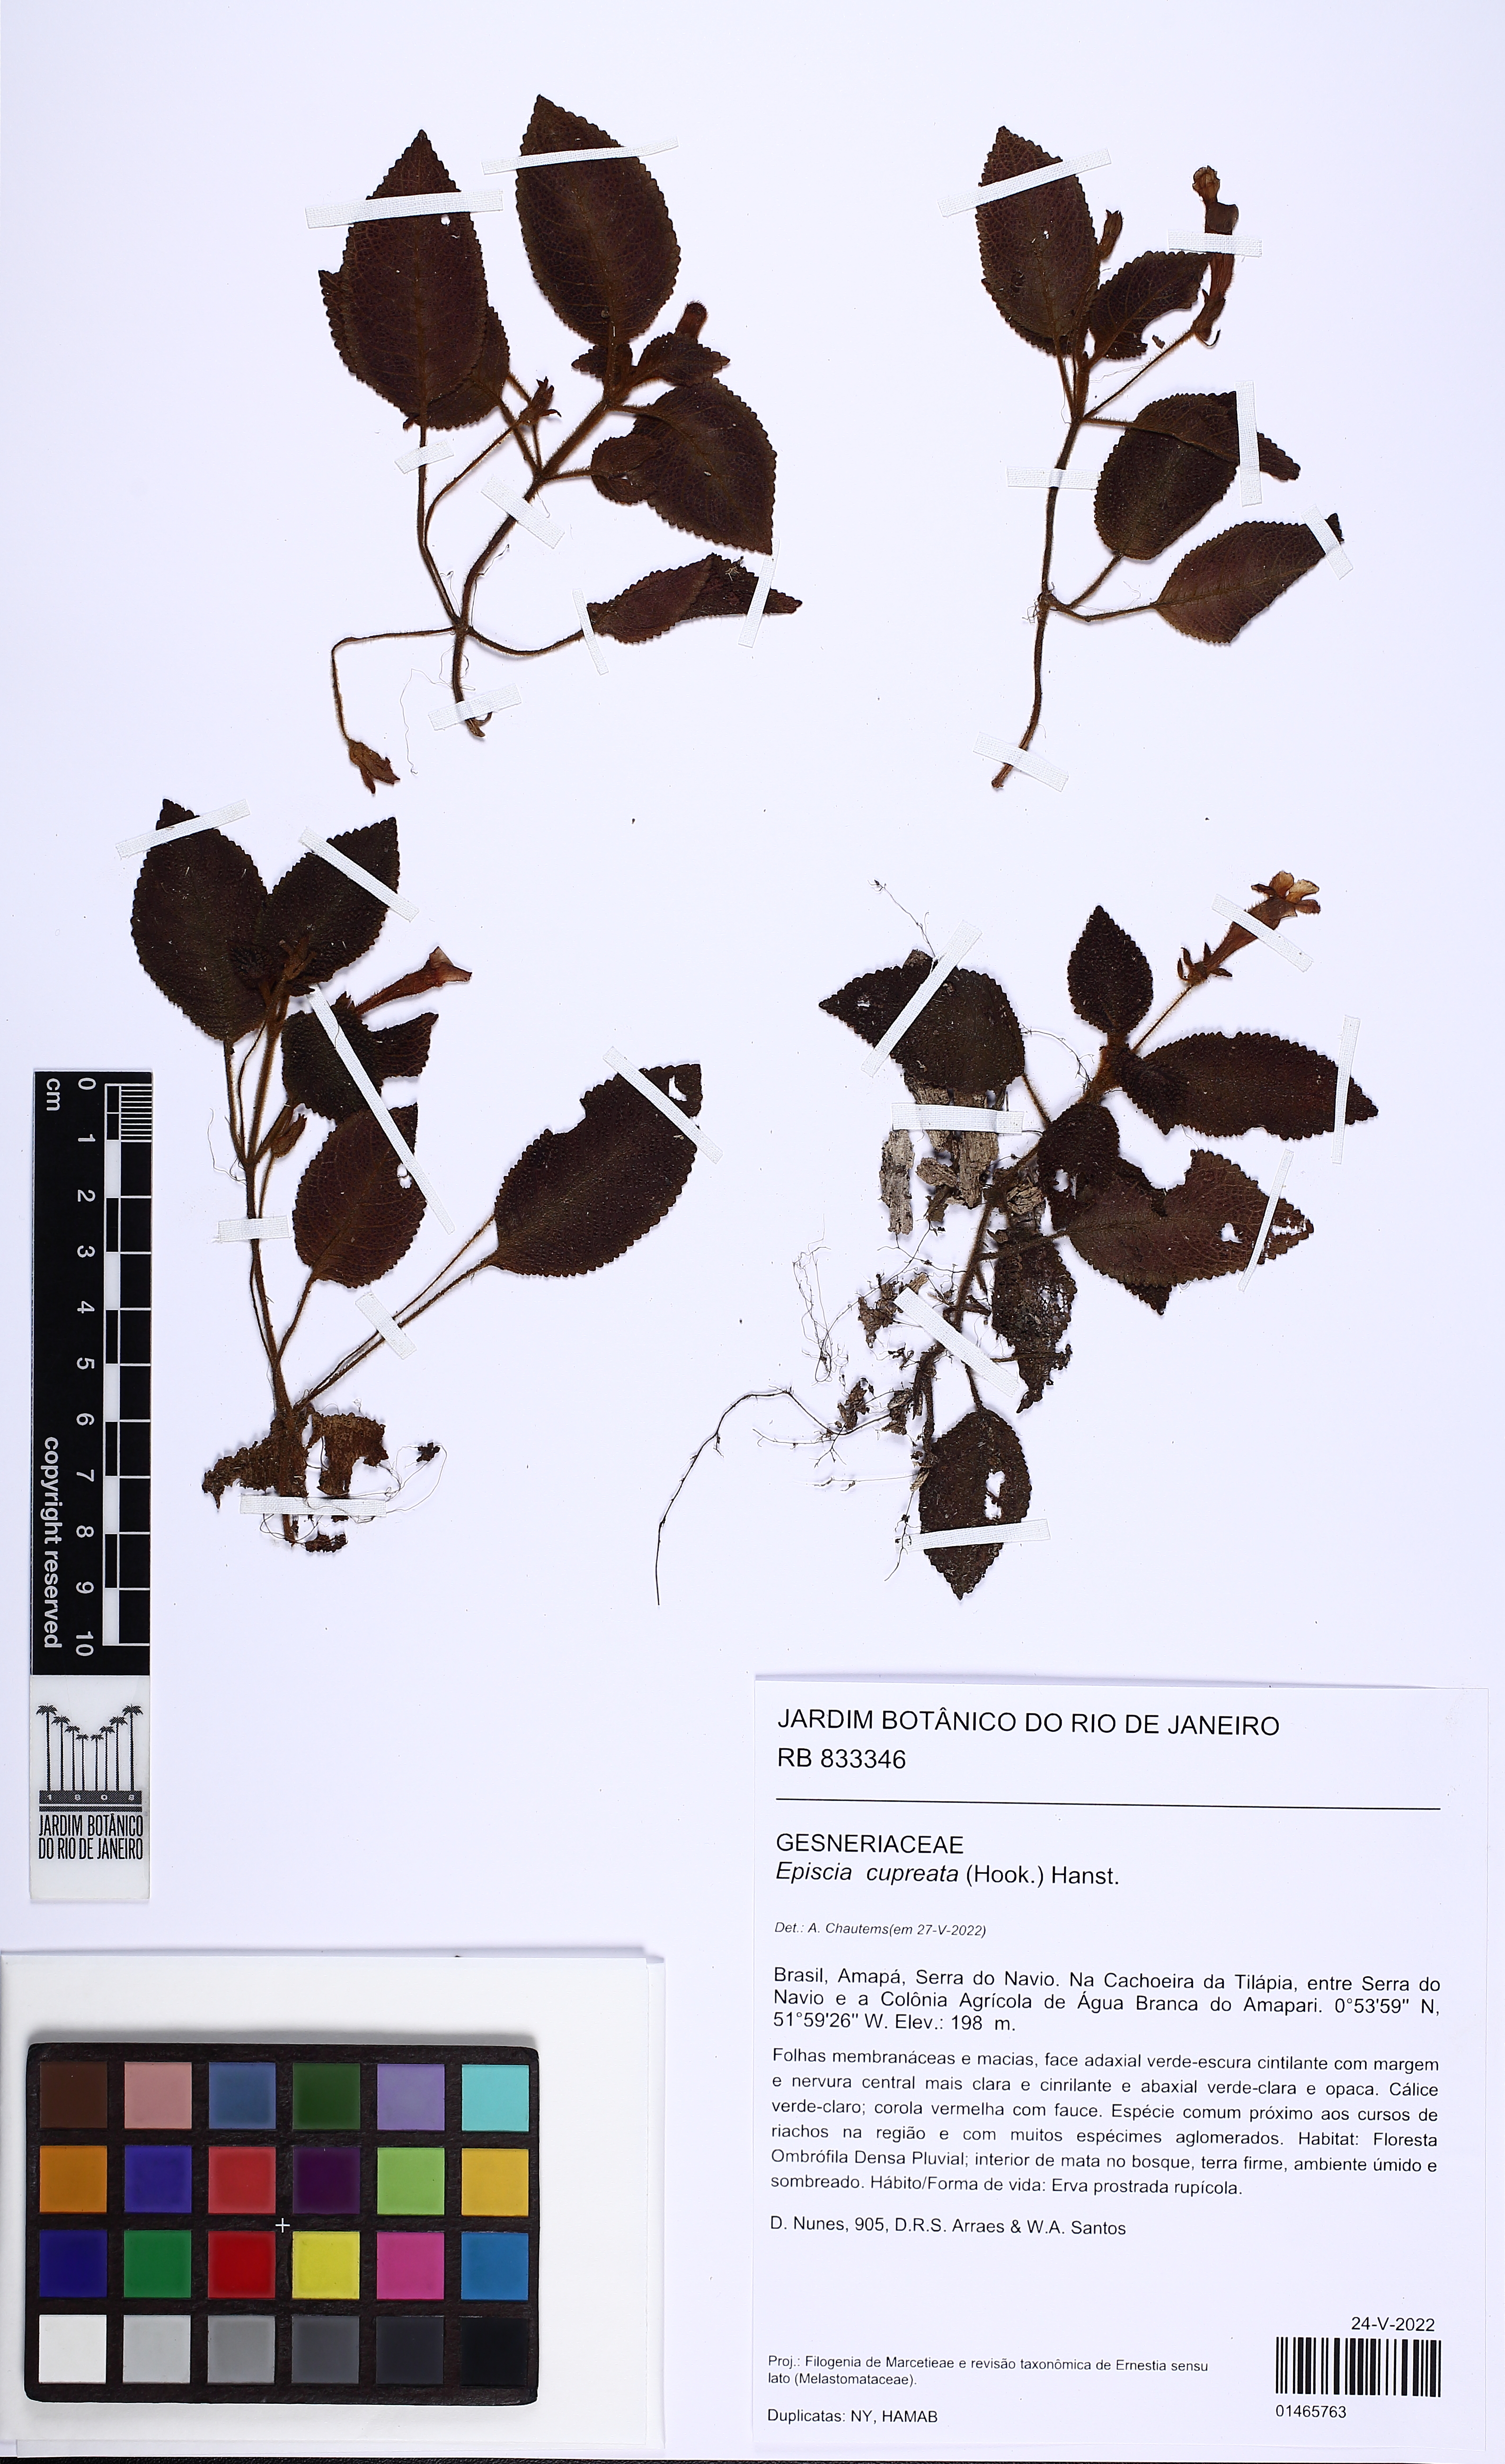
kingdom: Plantae
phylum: Tracheophyta
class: Magnoliopsida
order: Lamiales
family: Gesneriaceae
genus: Episcia
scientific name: Episcia cupreata
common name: Flame-violet
